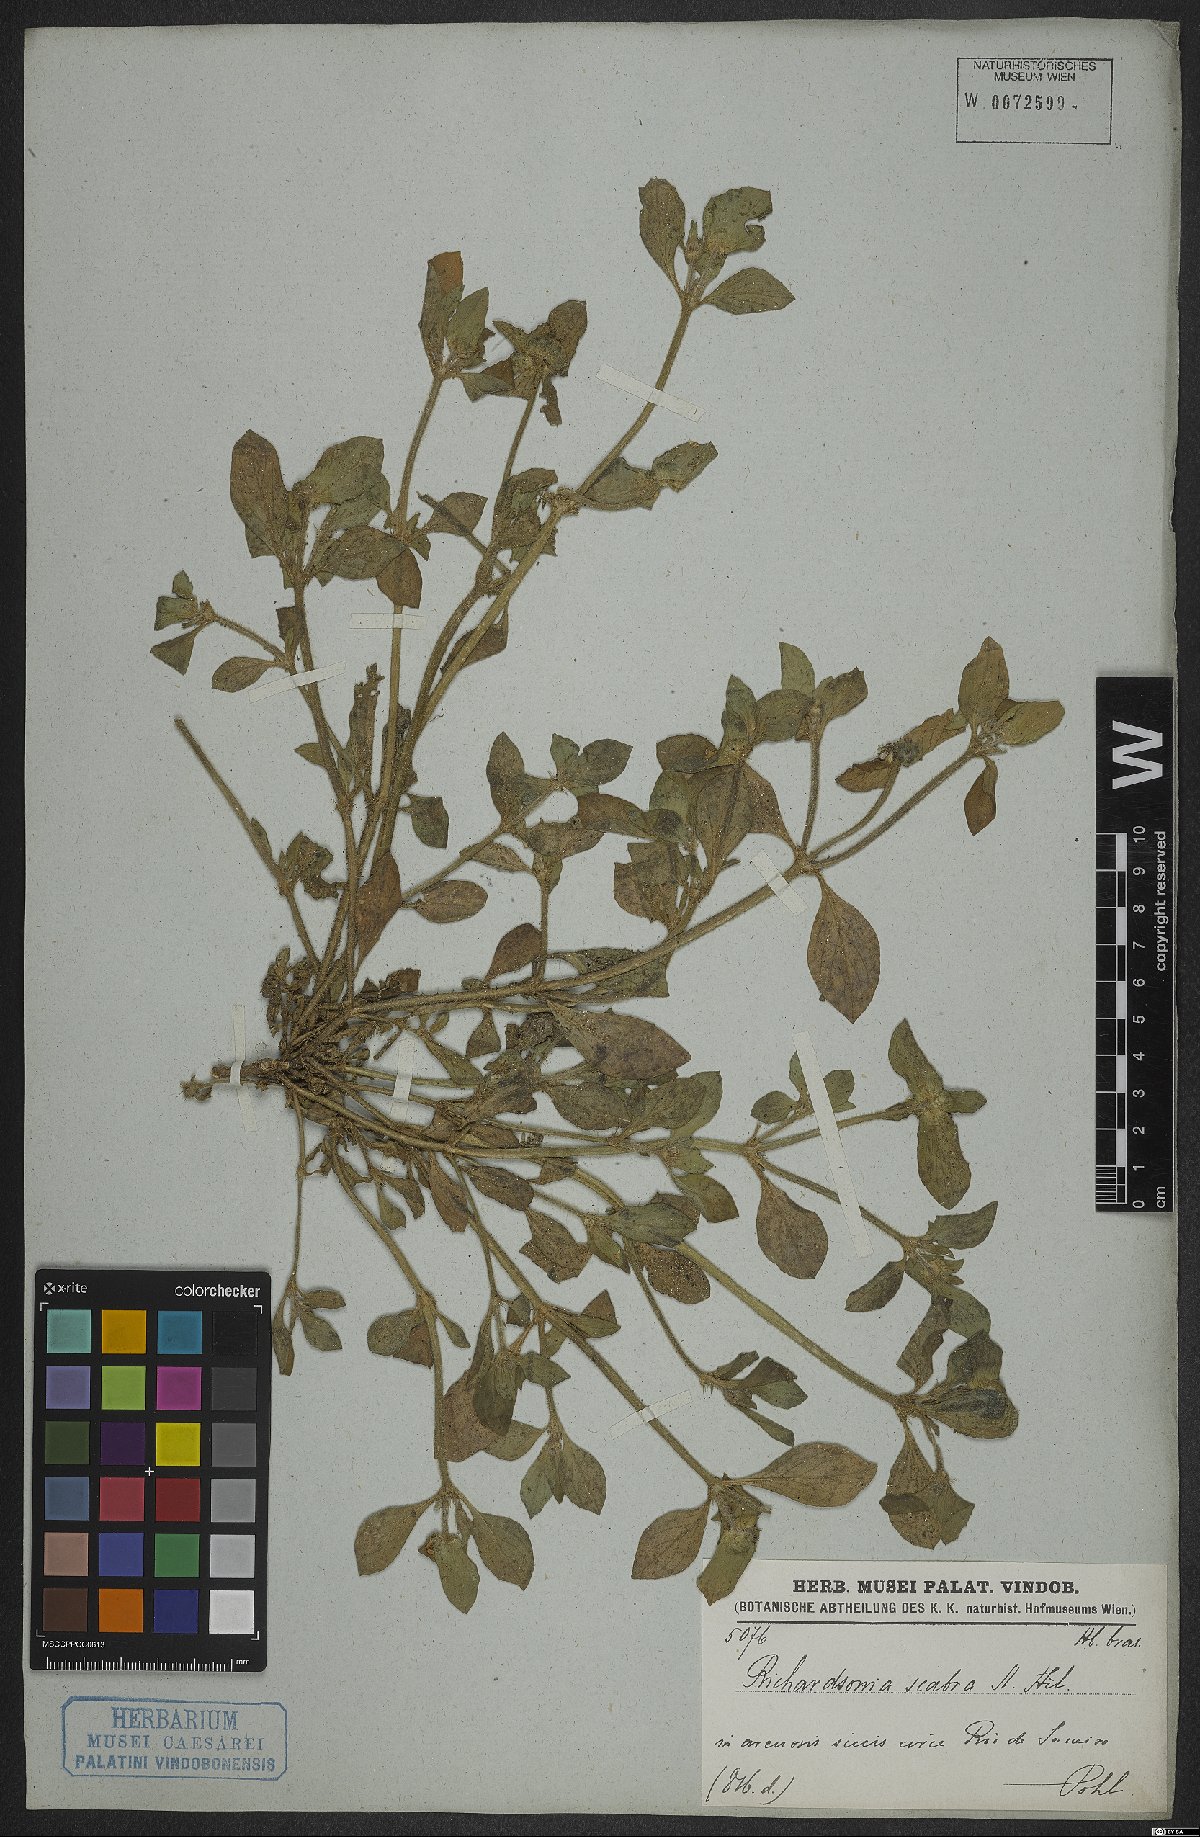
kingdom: Plantae
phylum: Tracheophyta
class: Magnoliopsida
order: Gentianales
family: Rubiaceae
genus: Richardia
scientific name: Richardia scabra
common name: Rough mexican clover
